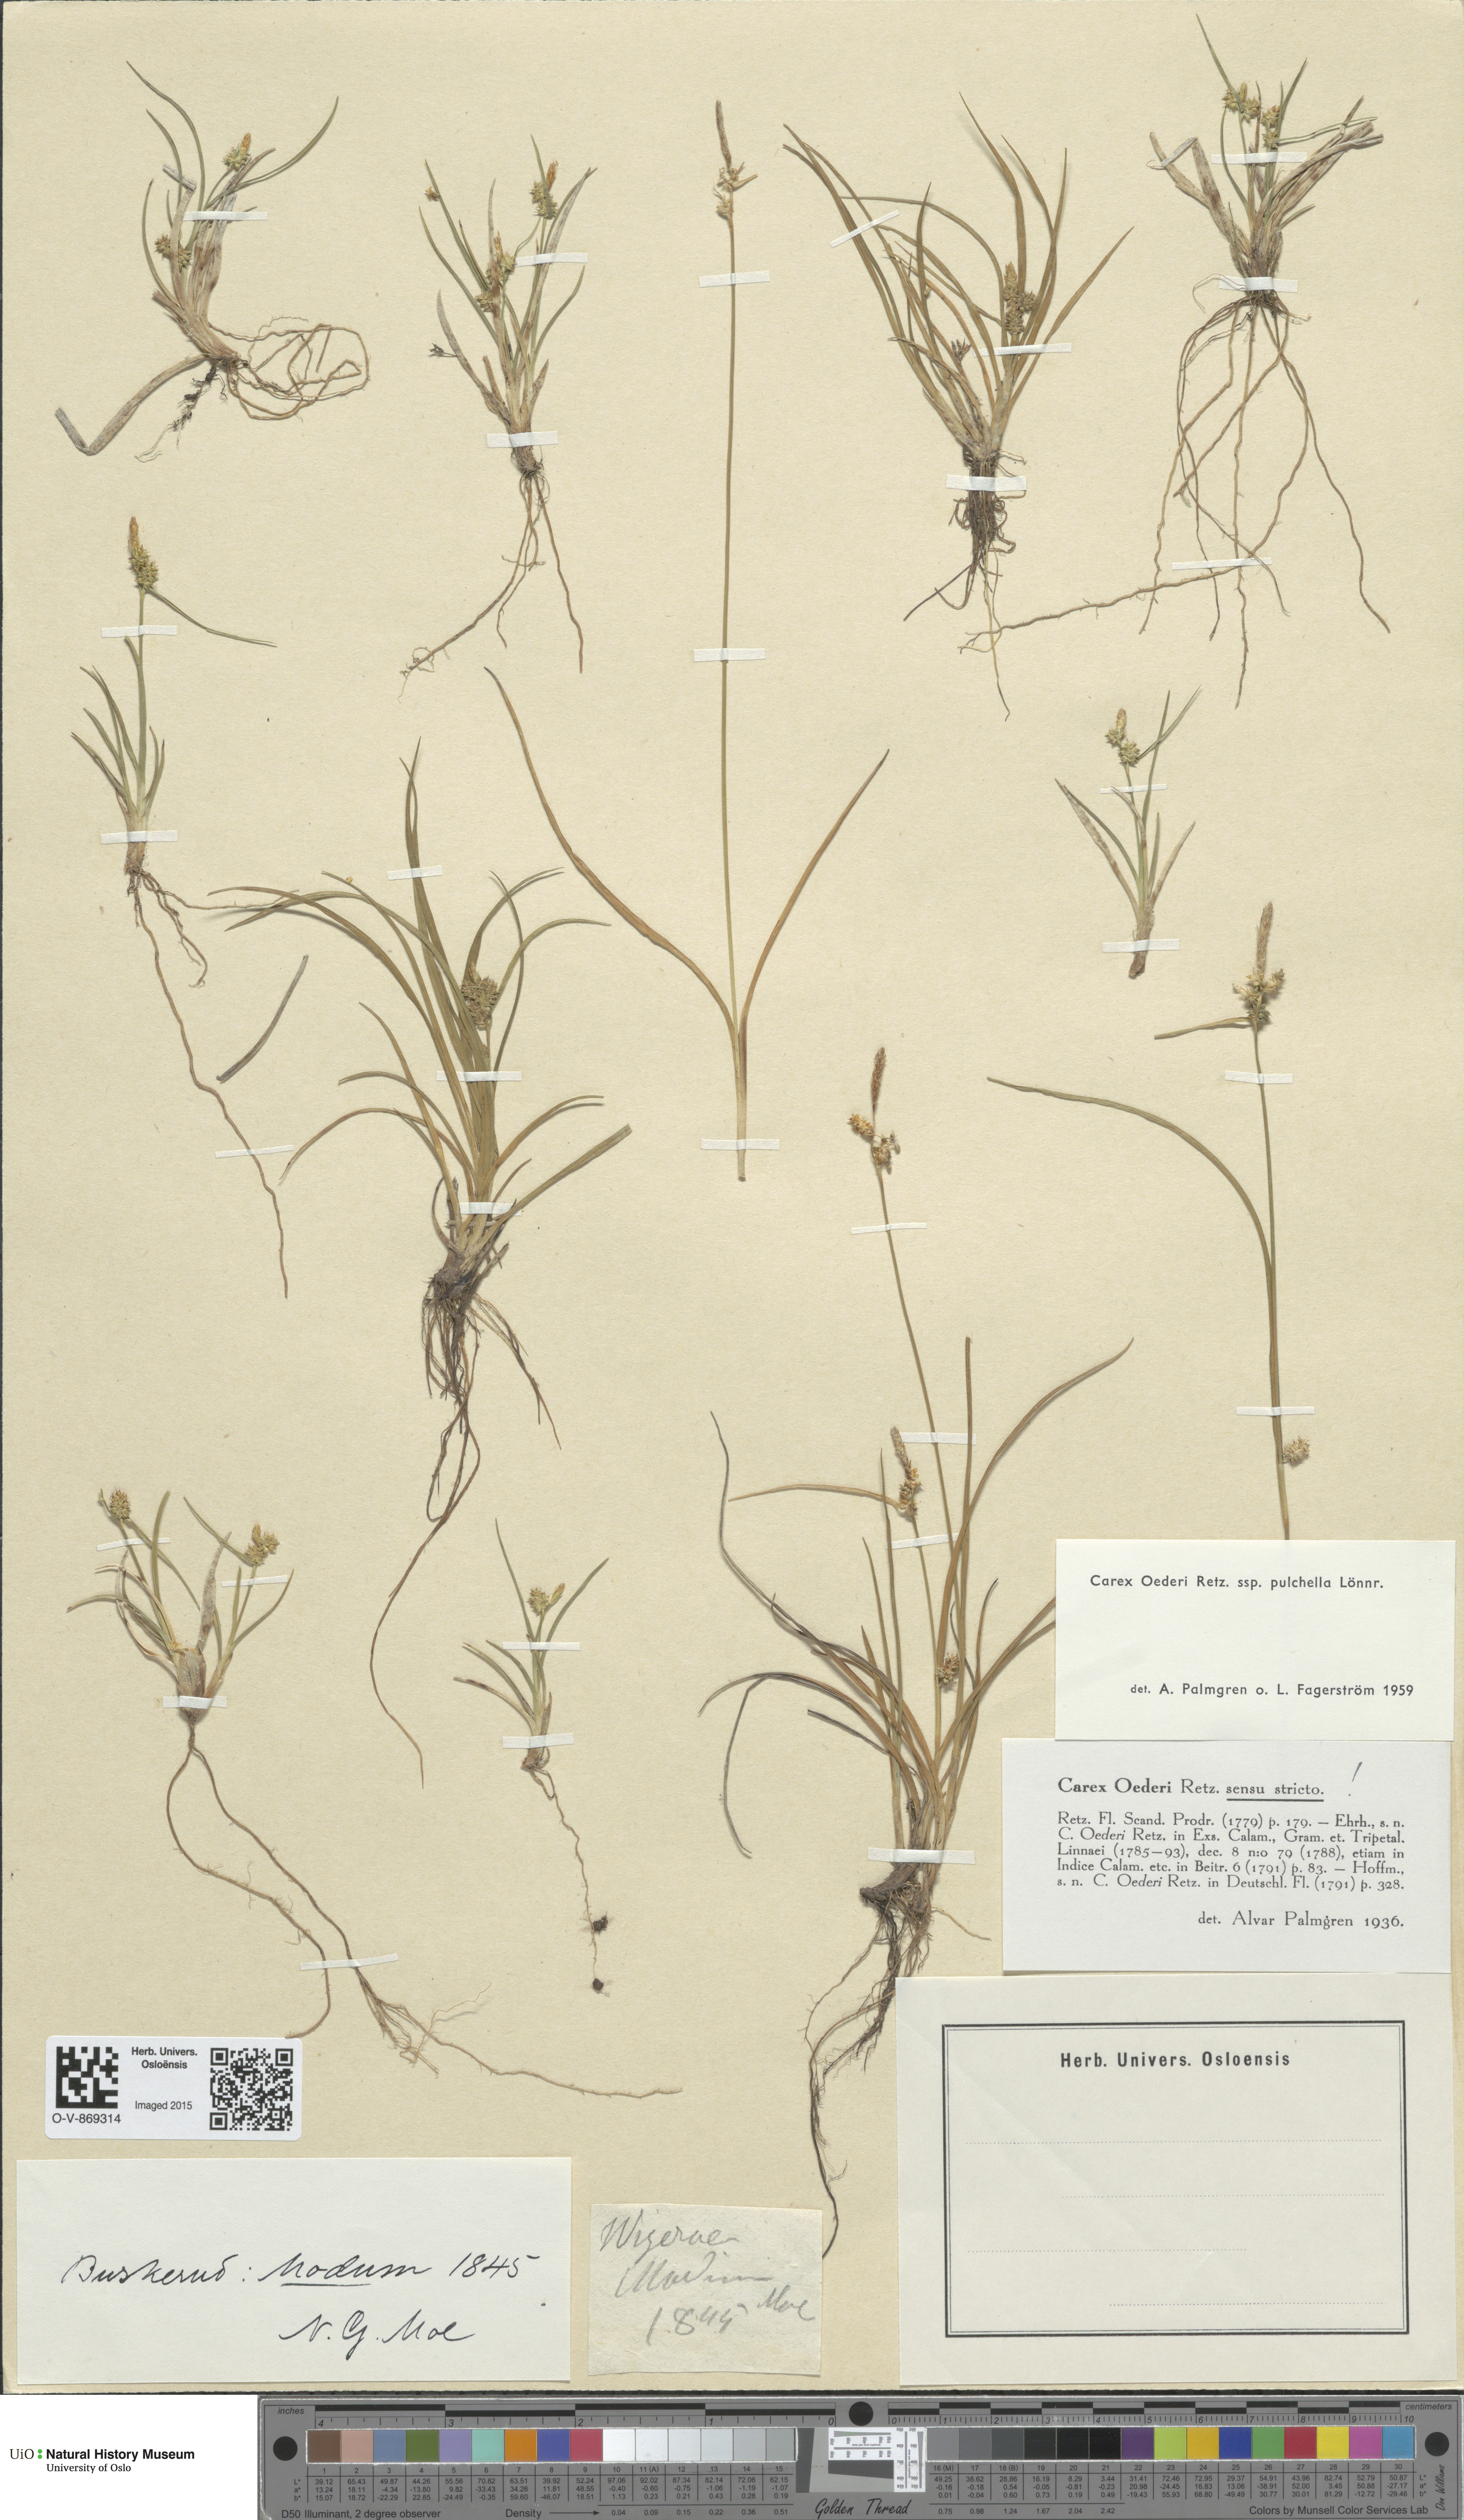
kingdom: Plantae
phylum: Tracheophyta
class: Liliopsida
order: Poales
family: Cyperaceae
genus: Carex
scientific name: Carex oederi
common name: Common & small-fruited yellow-sedge
